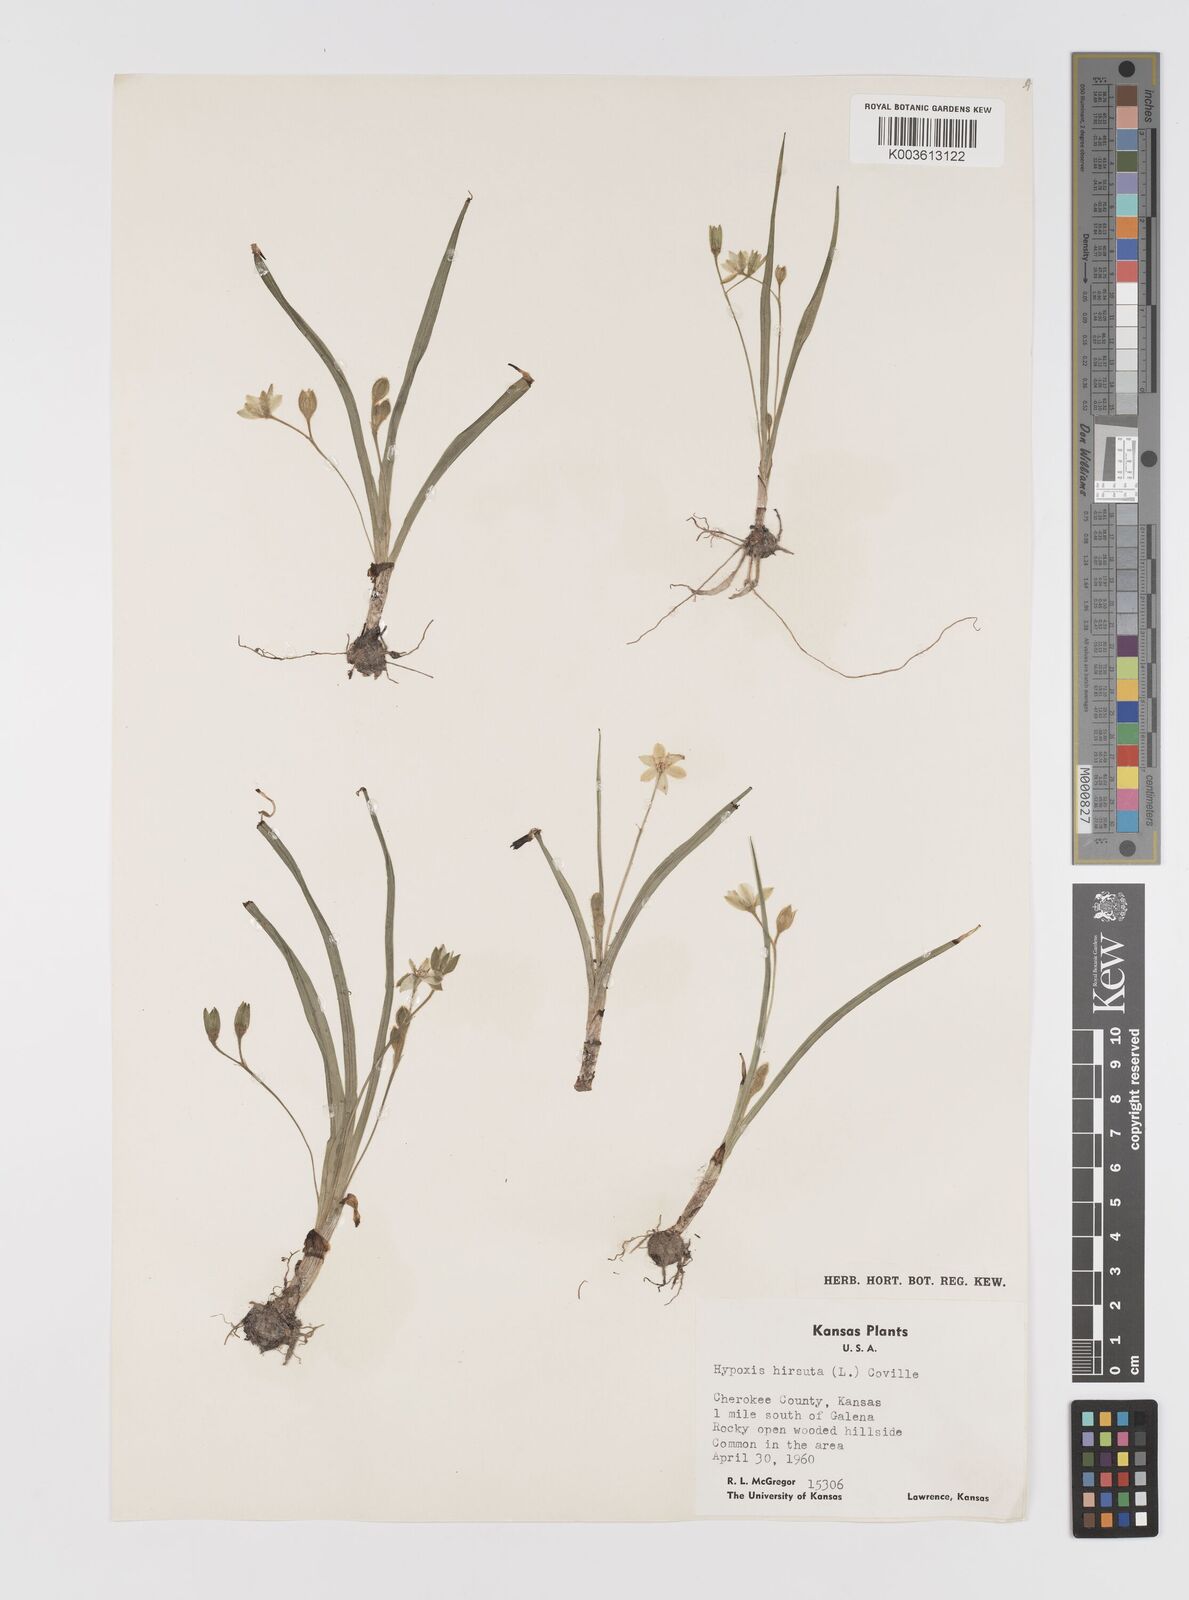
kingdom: Plantae
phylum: Tracheophyta
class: Liliopsida
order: Asparagales
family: Hypoxidaceae
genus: Hypoxis
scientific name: Hypoxis hirsuta
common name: Common goldstar
